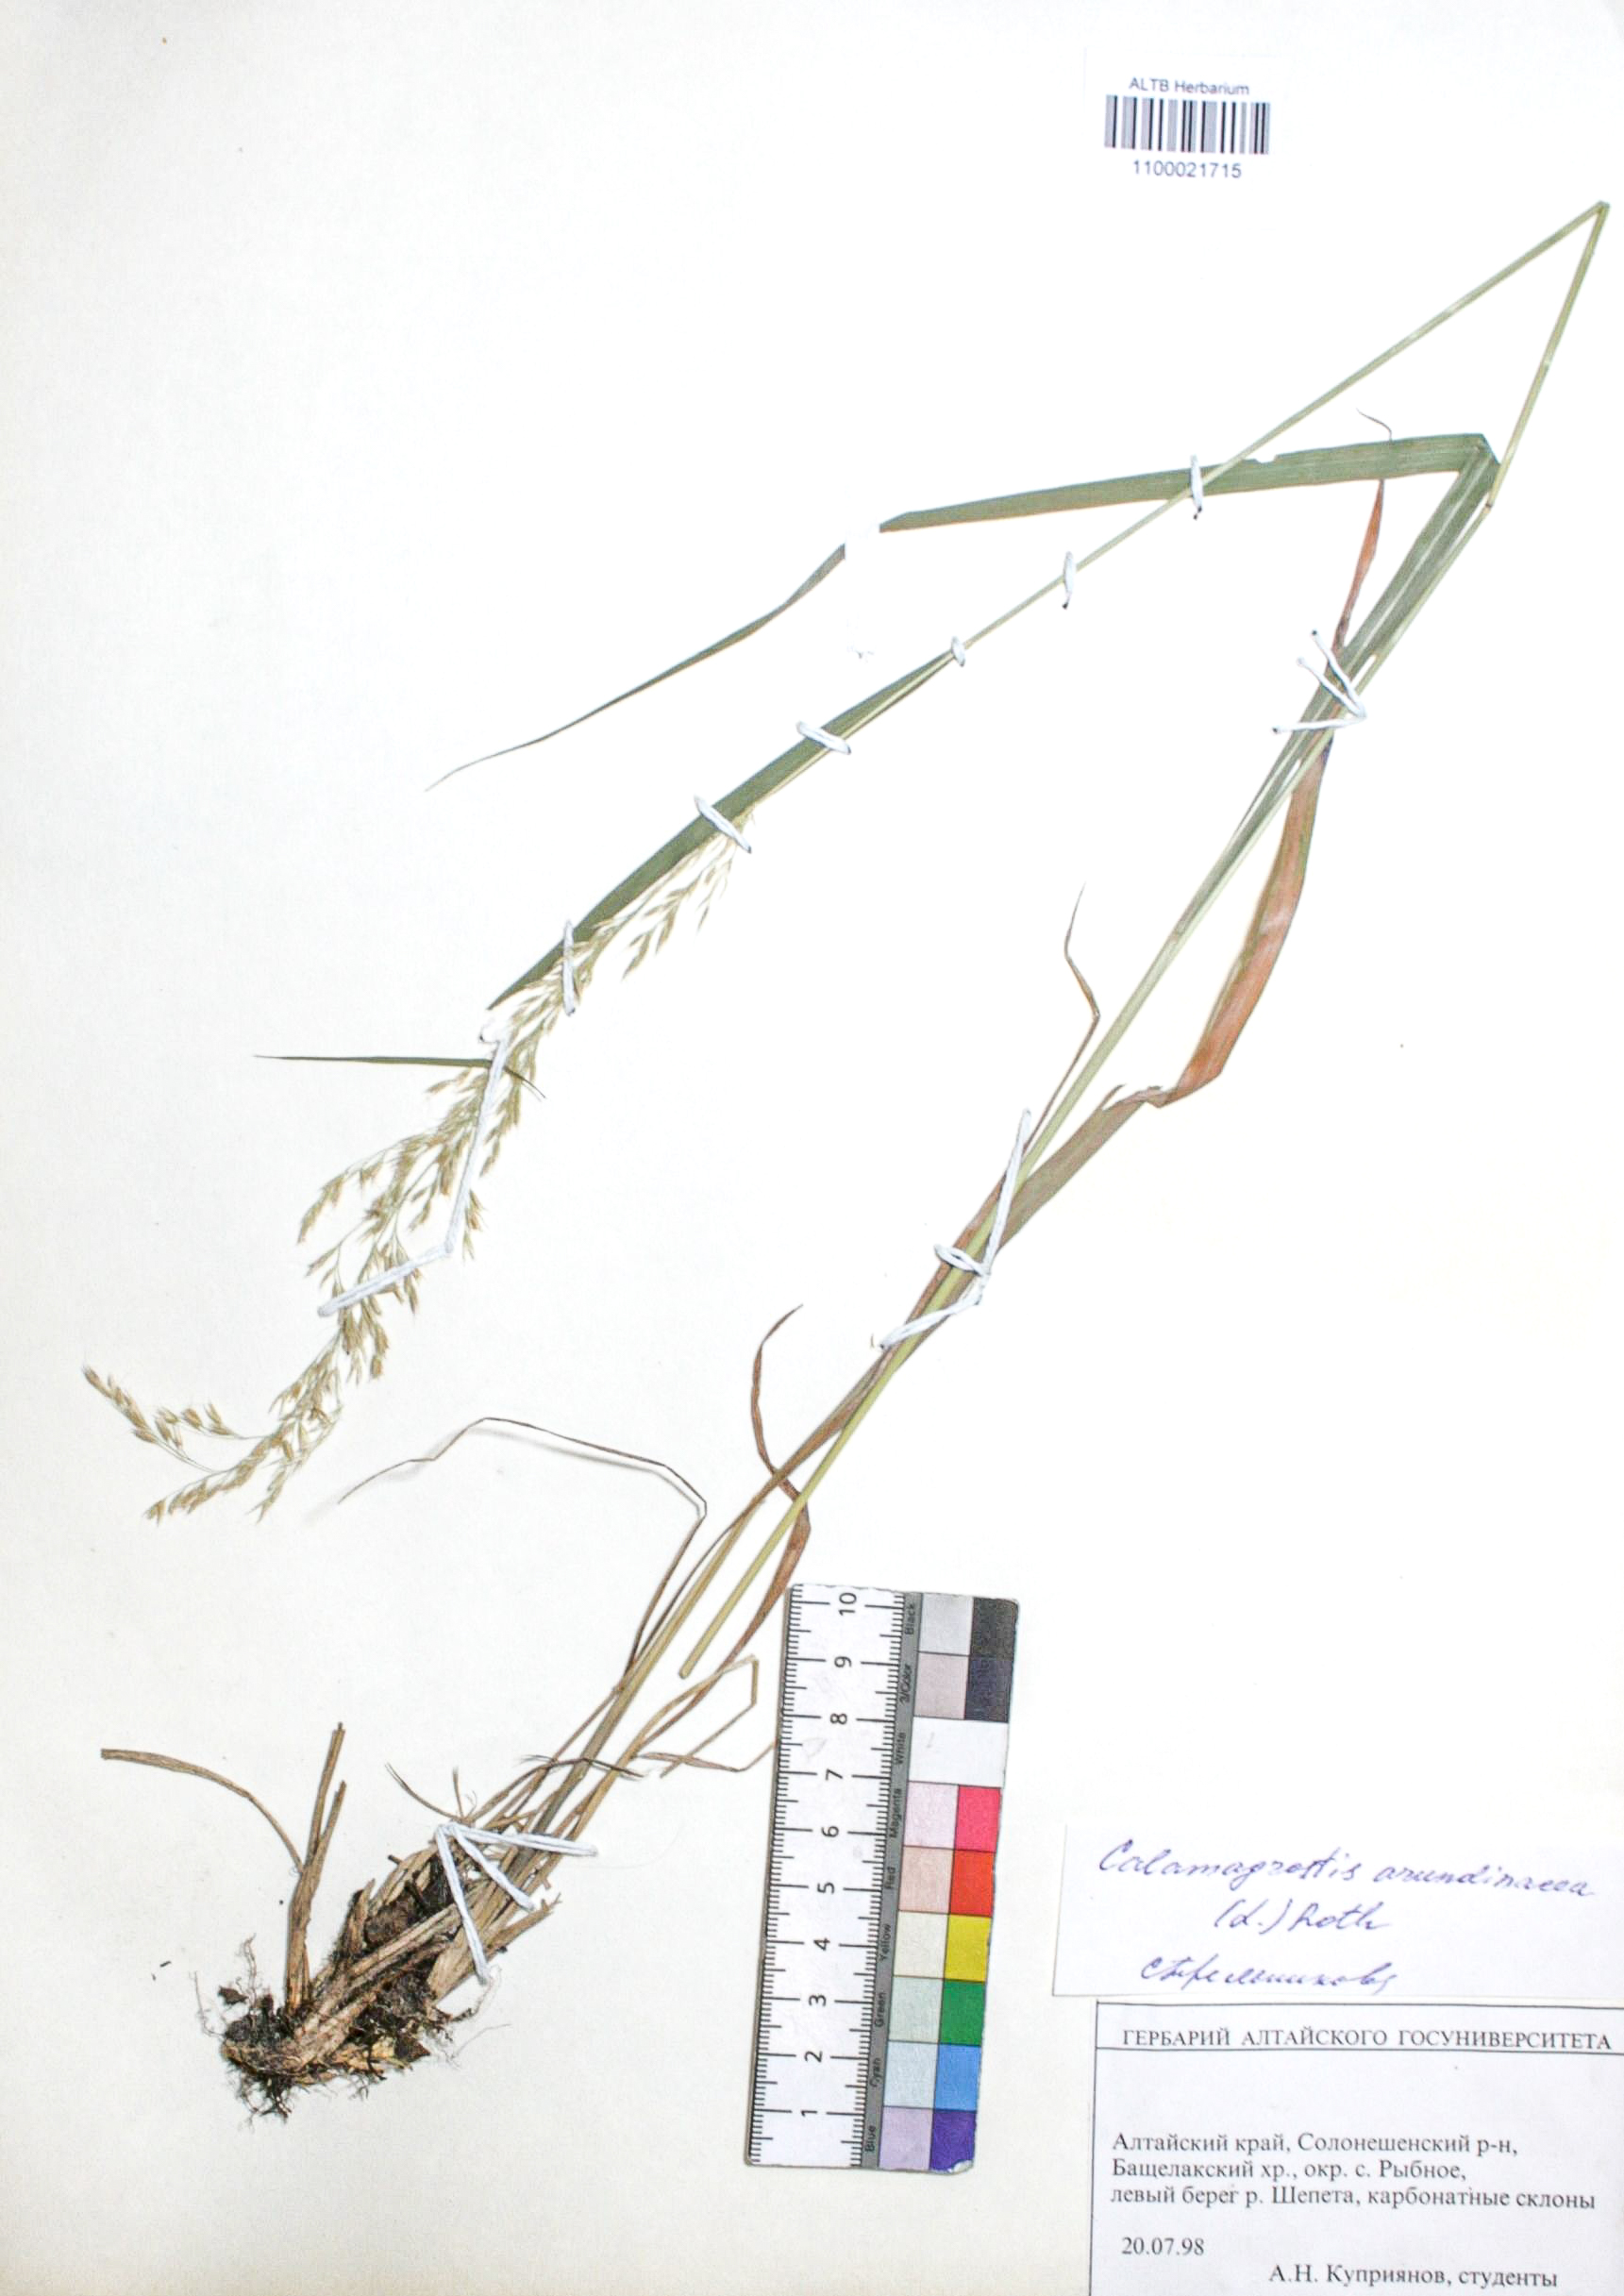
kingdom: Plantae
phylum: Tracheophyta
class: Liliopsida
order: Poales
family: Poaceae
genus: Calamagrostis
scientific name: Calamagrostis arundinacea
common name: Metskastik
